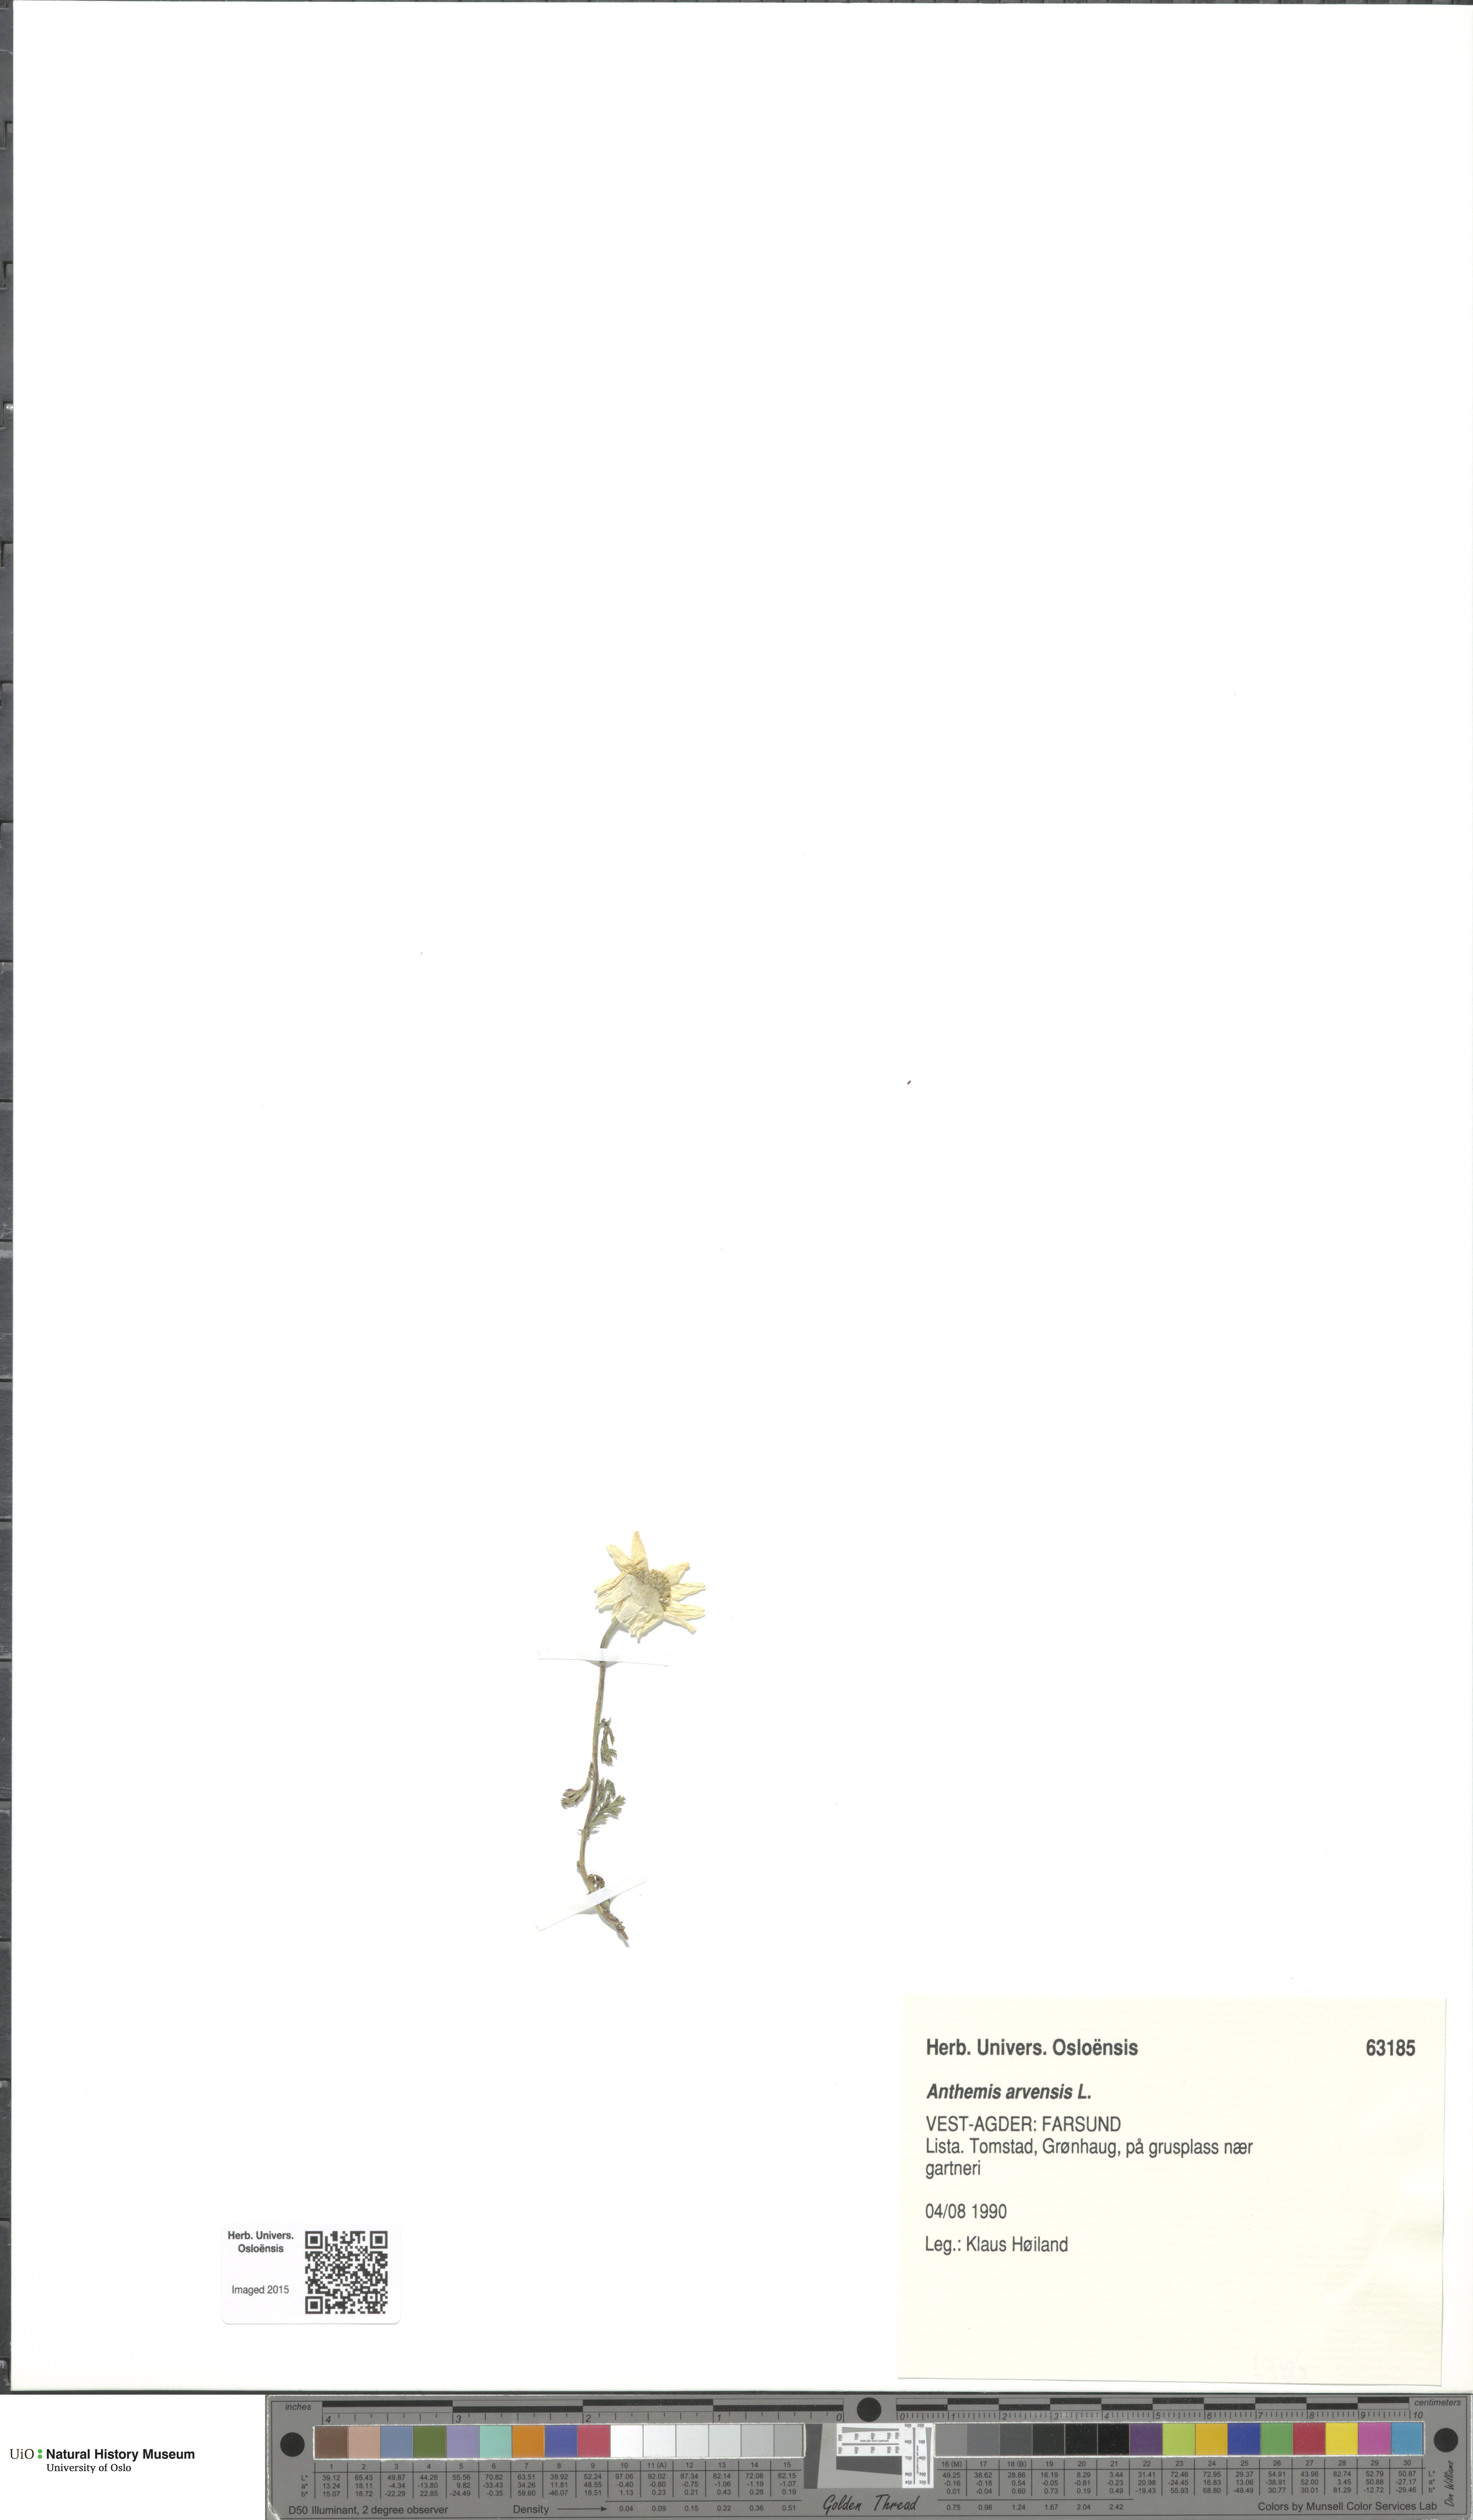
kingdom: Plantae
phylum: Tracheophyta
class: Magnoliopsida
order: Asterales
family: Asteraceae
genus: Anthemis
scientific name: Anthemis arvensis
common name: Corn chamomile
